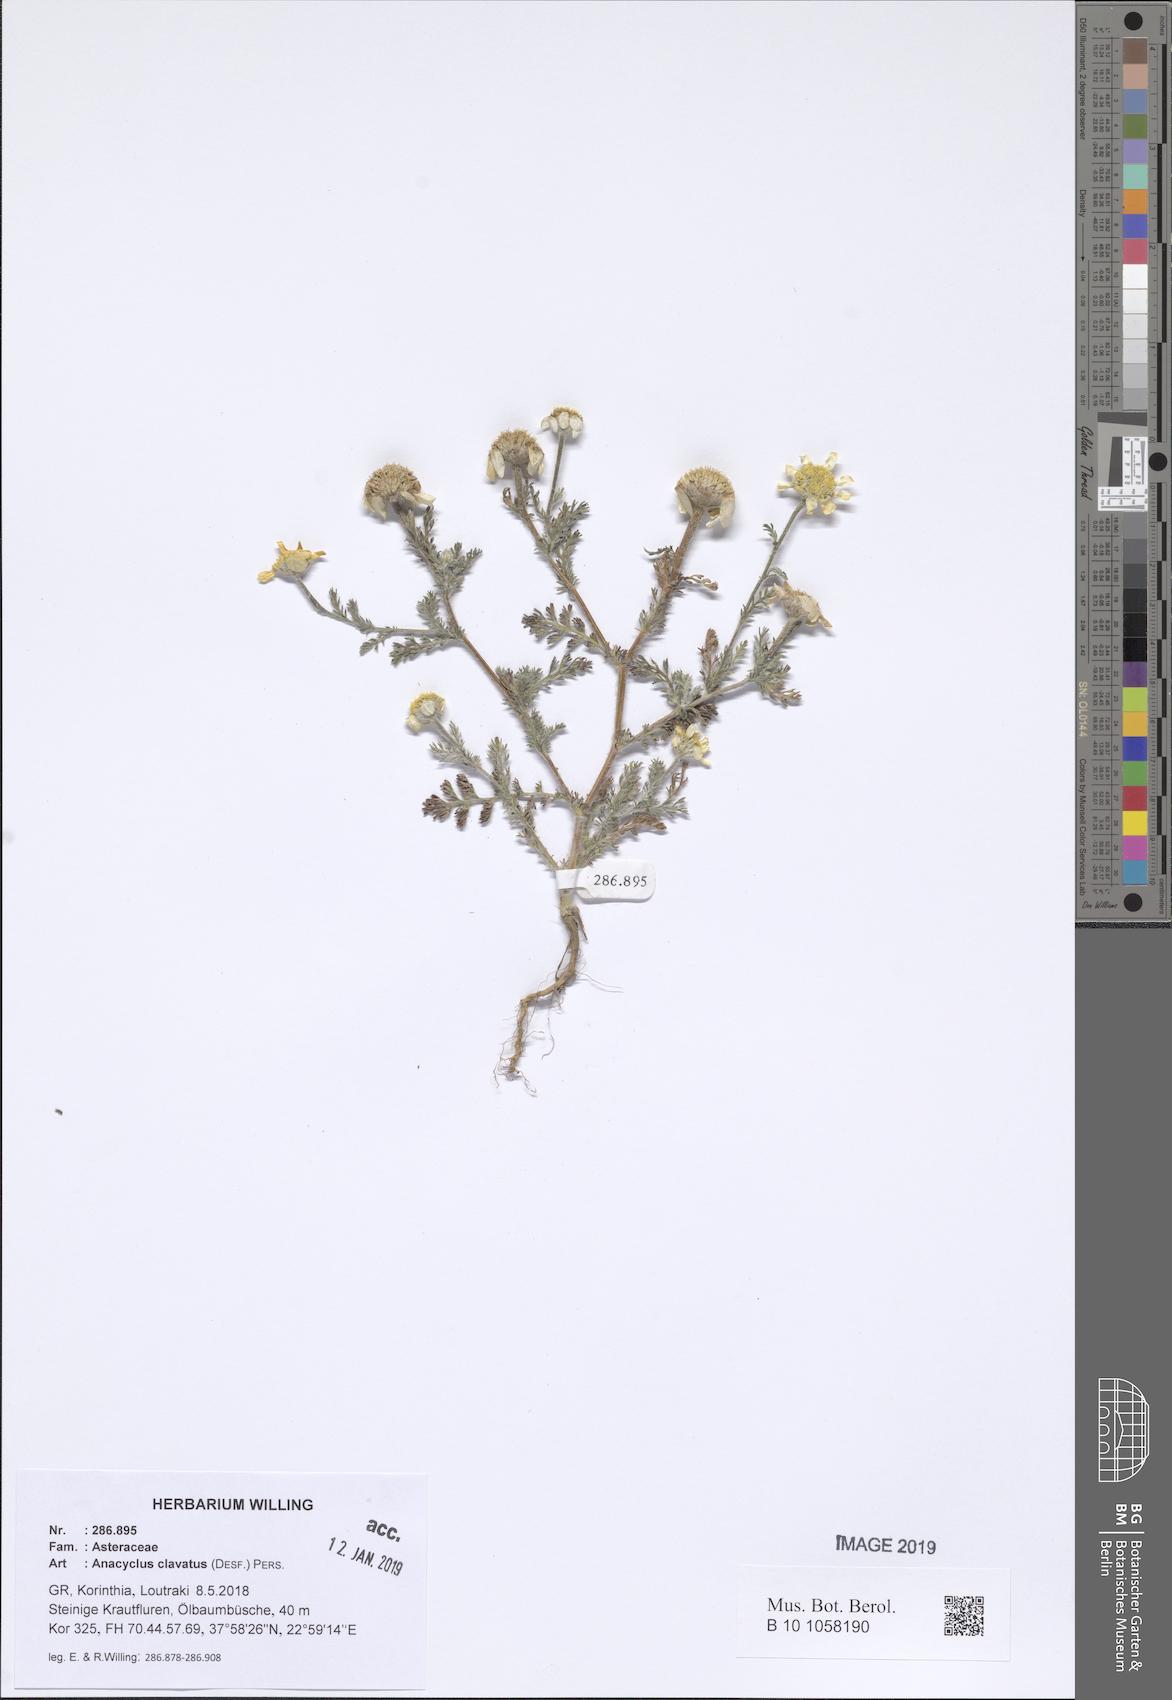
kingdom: Plantae
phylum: Tracheophyta
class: Magnoliopsida
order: Asterales
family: Asteraceae
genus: Anacyclus
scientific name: Anacyclus clavatus
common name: Whitebuttons
